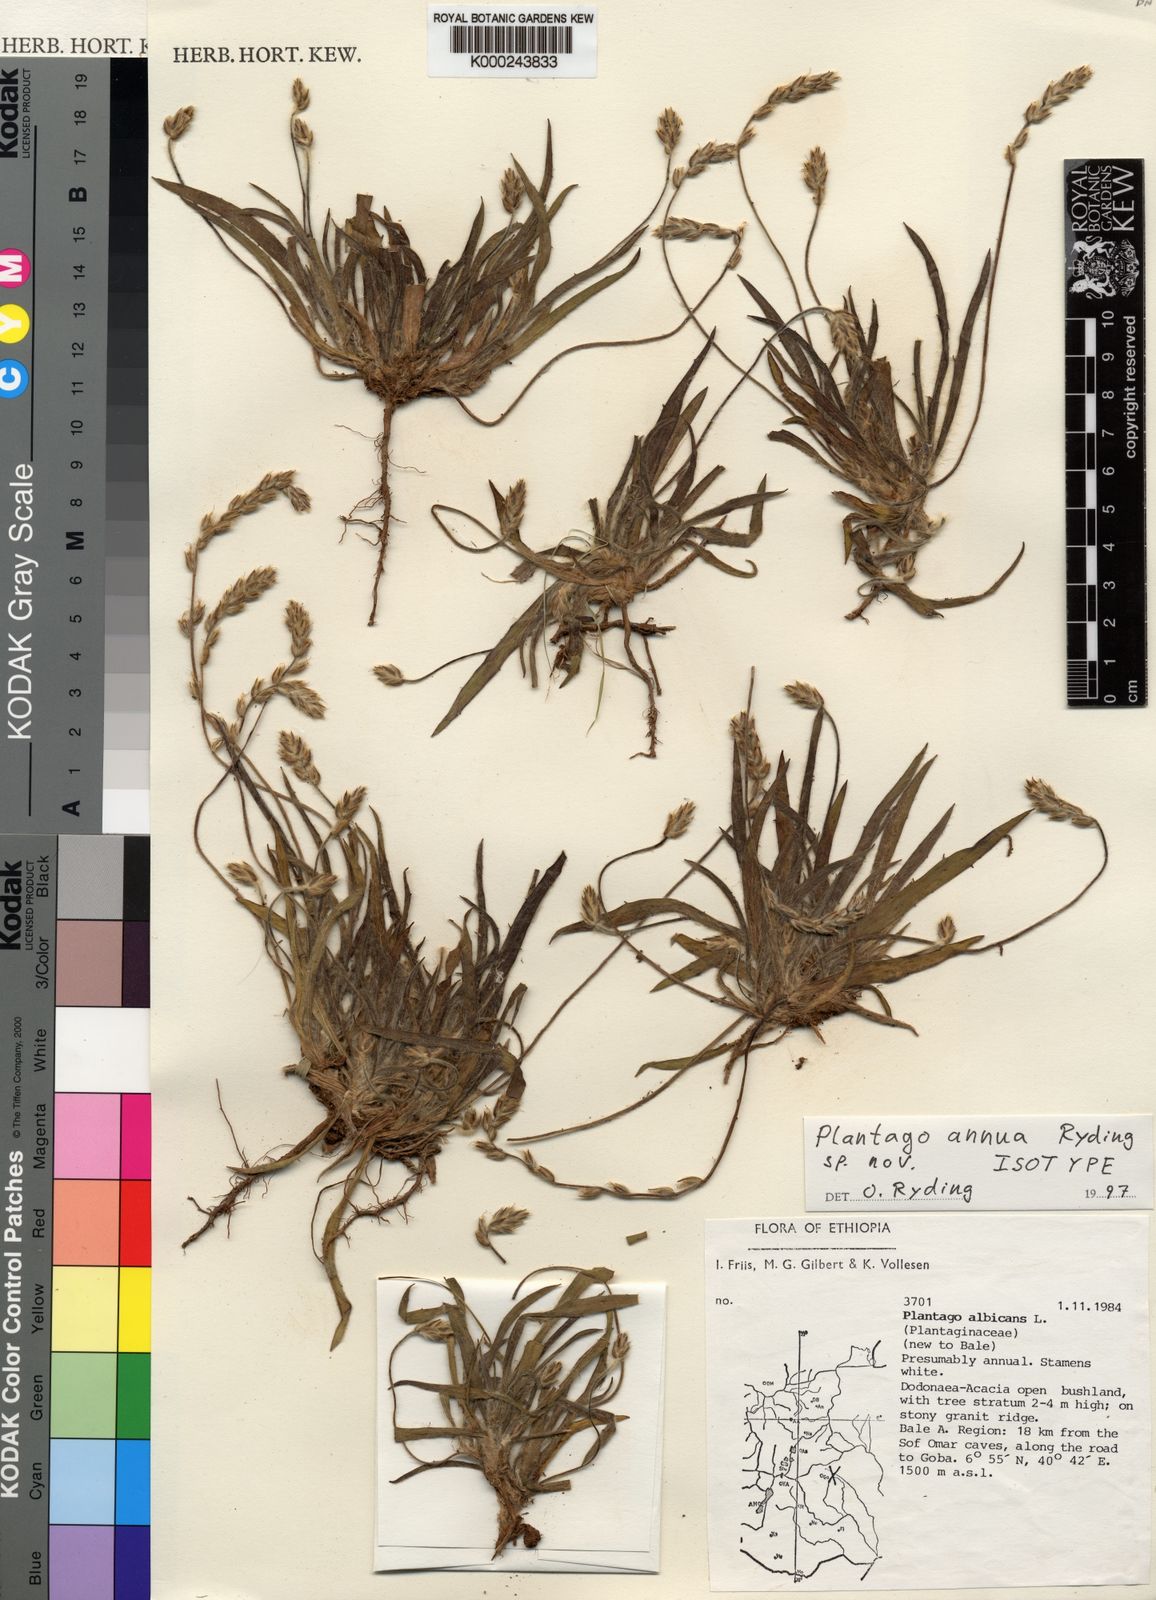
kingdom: Plantae
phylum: Tracheophyta
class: Magnoliopsida
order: Lamiales
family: Plantaginaceae
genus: Plantago
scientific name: Plantago annua
